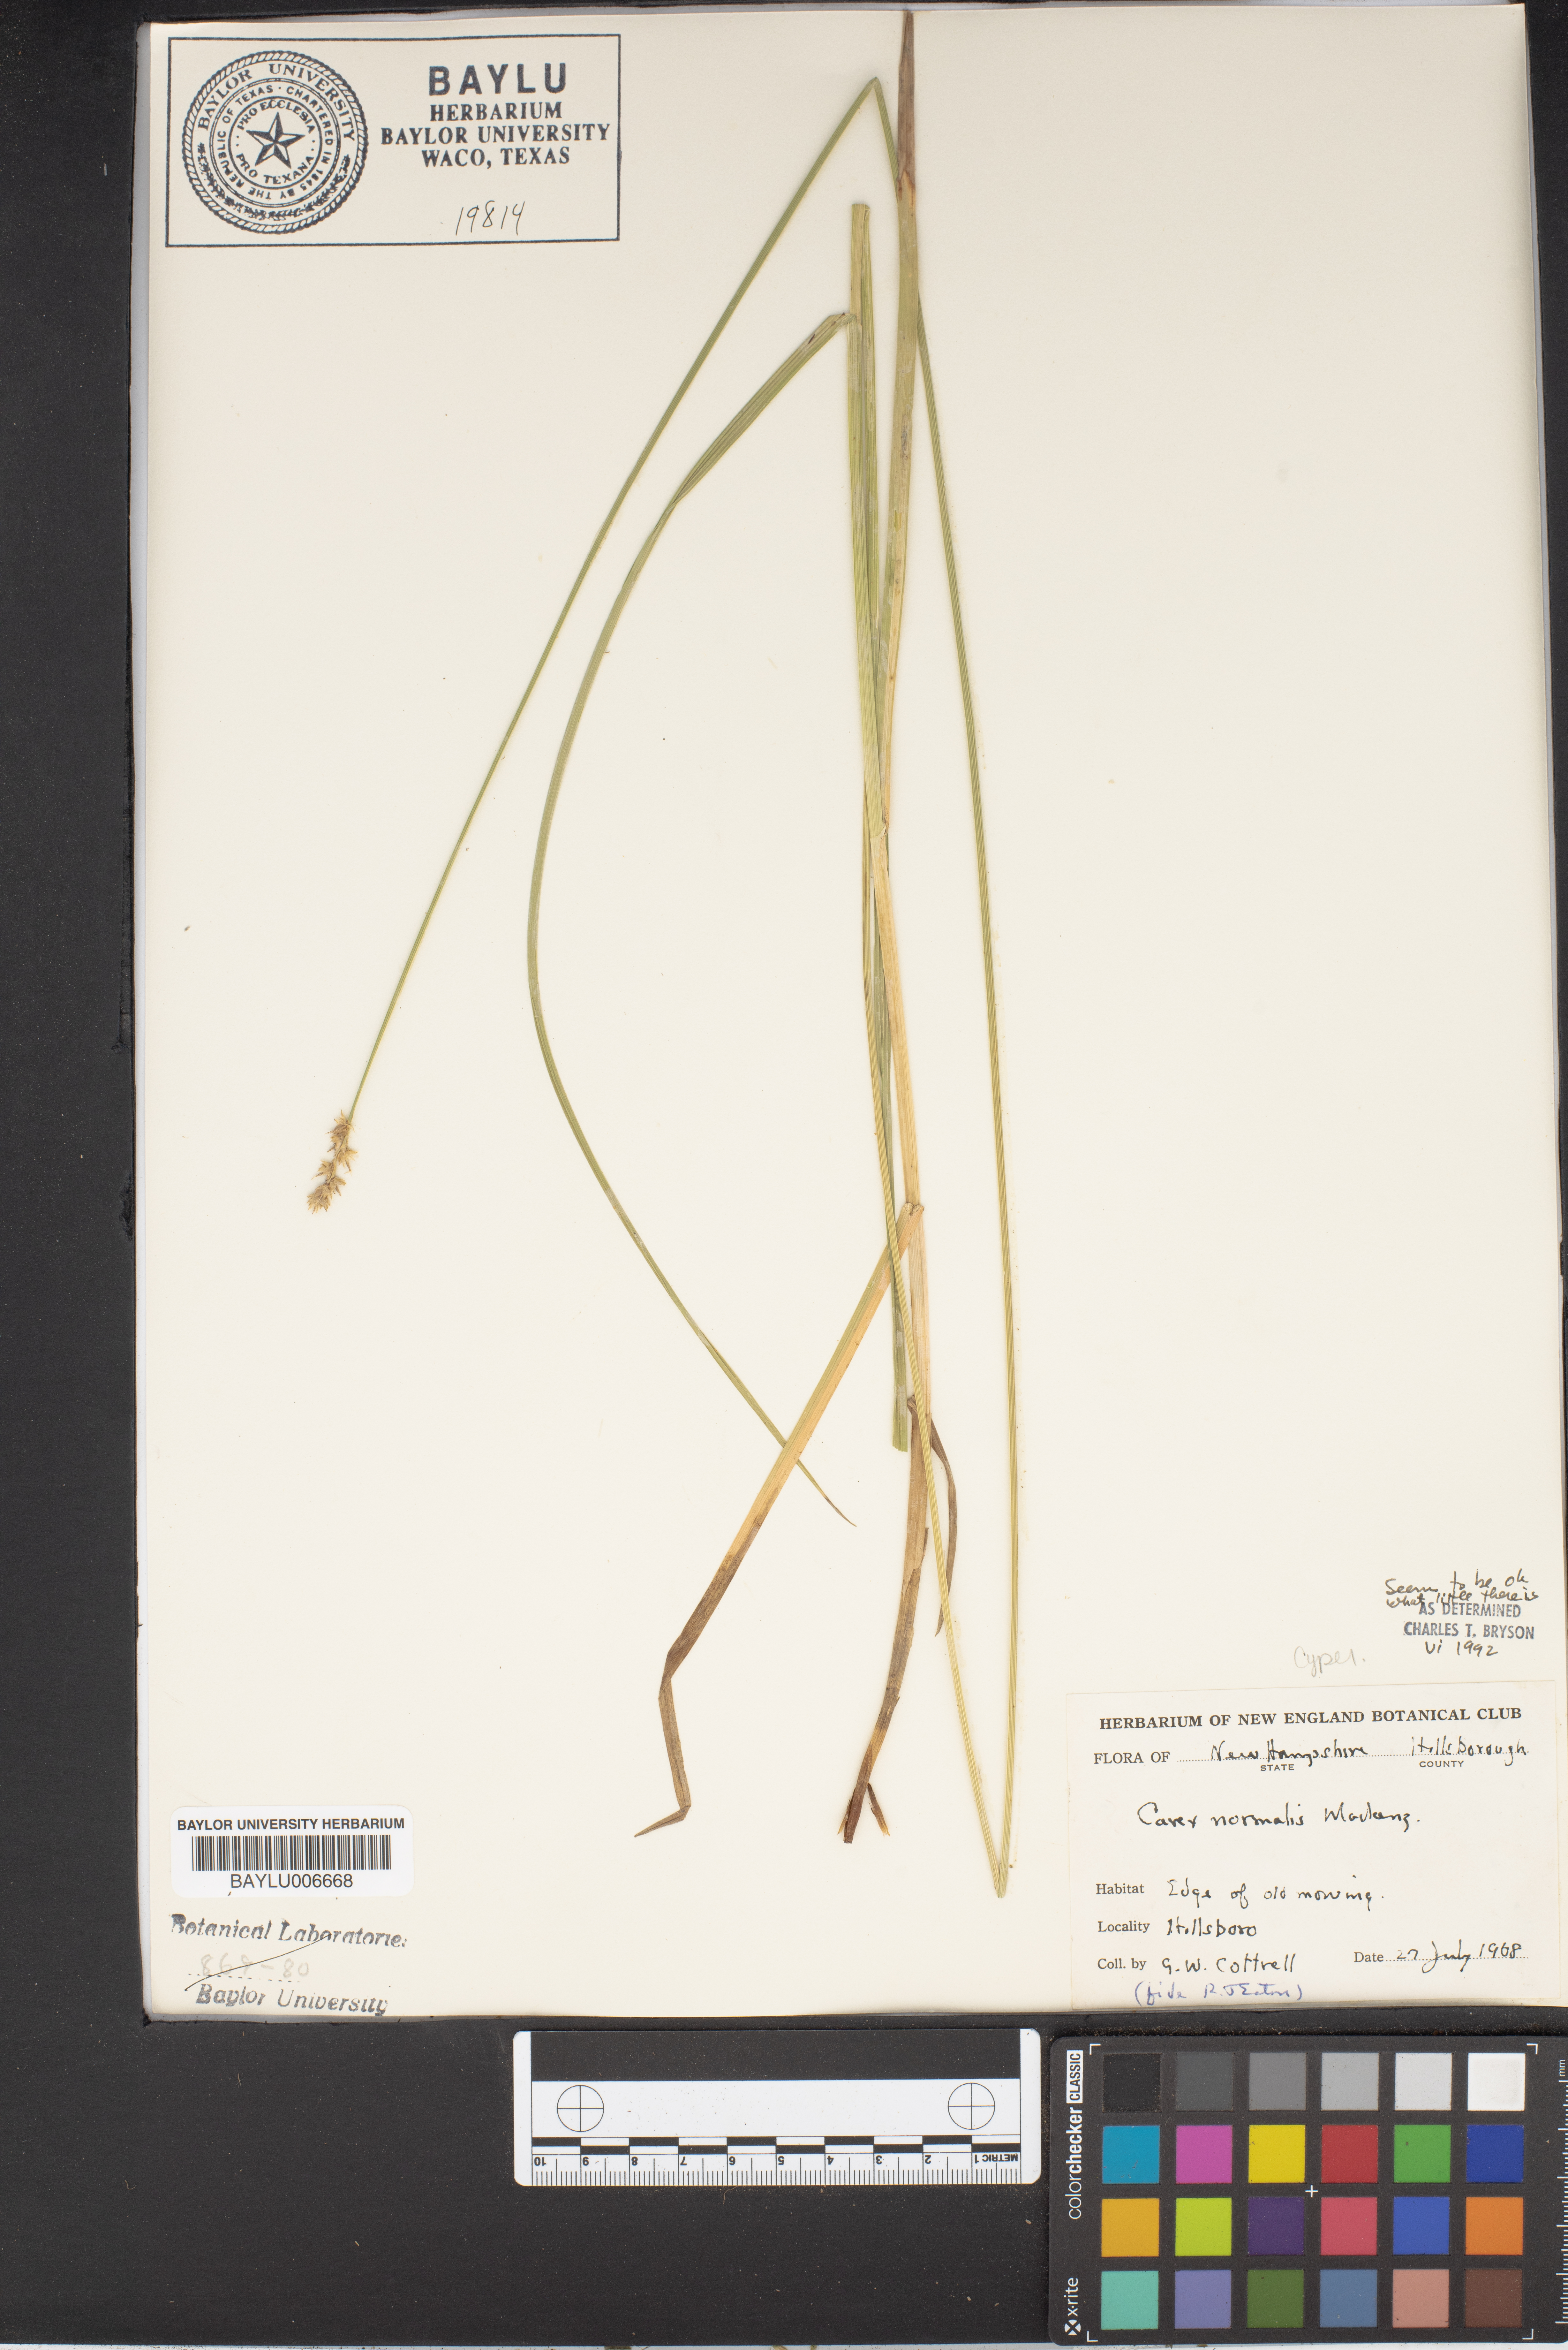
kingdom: Plantae
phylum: Tracheophyta
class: Liliopsida
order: Poales
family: Cyperaceae
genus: Carex
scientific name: Carex normalis
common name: Greater straw sedge
